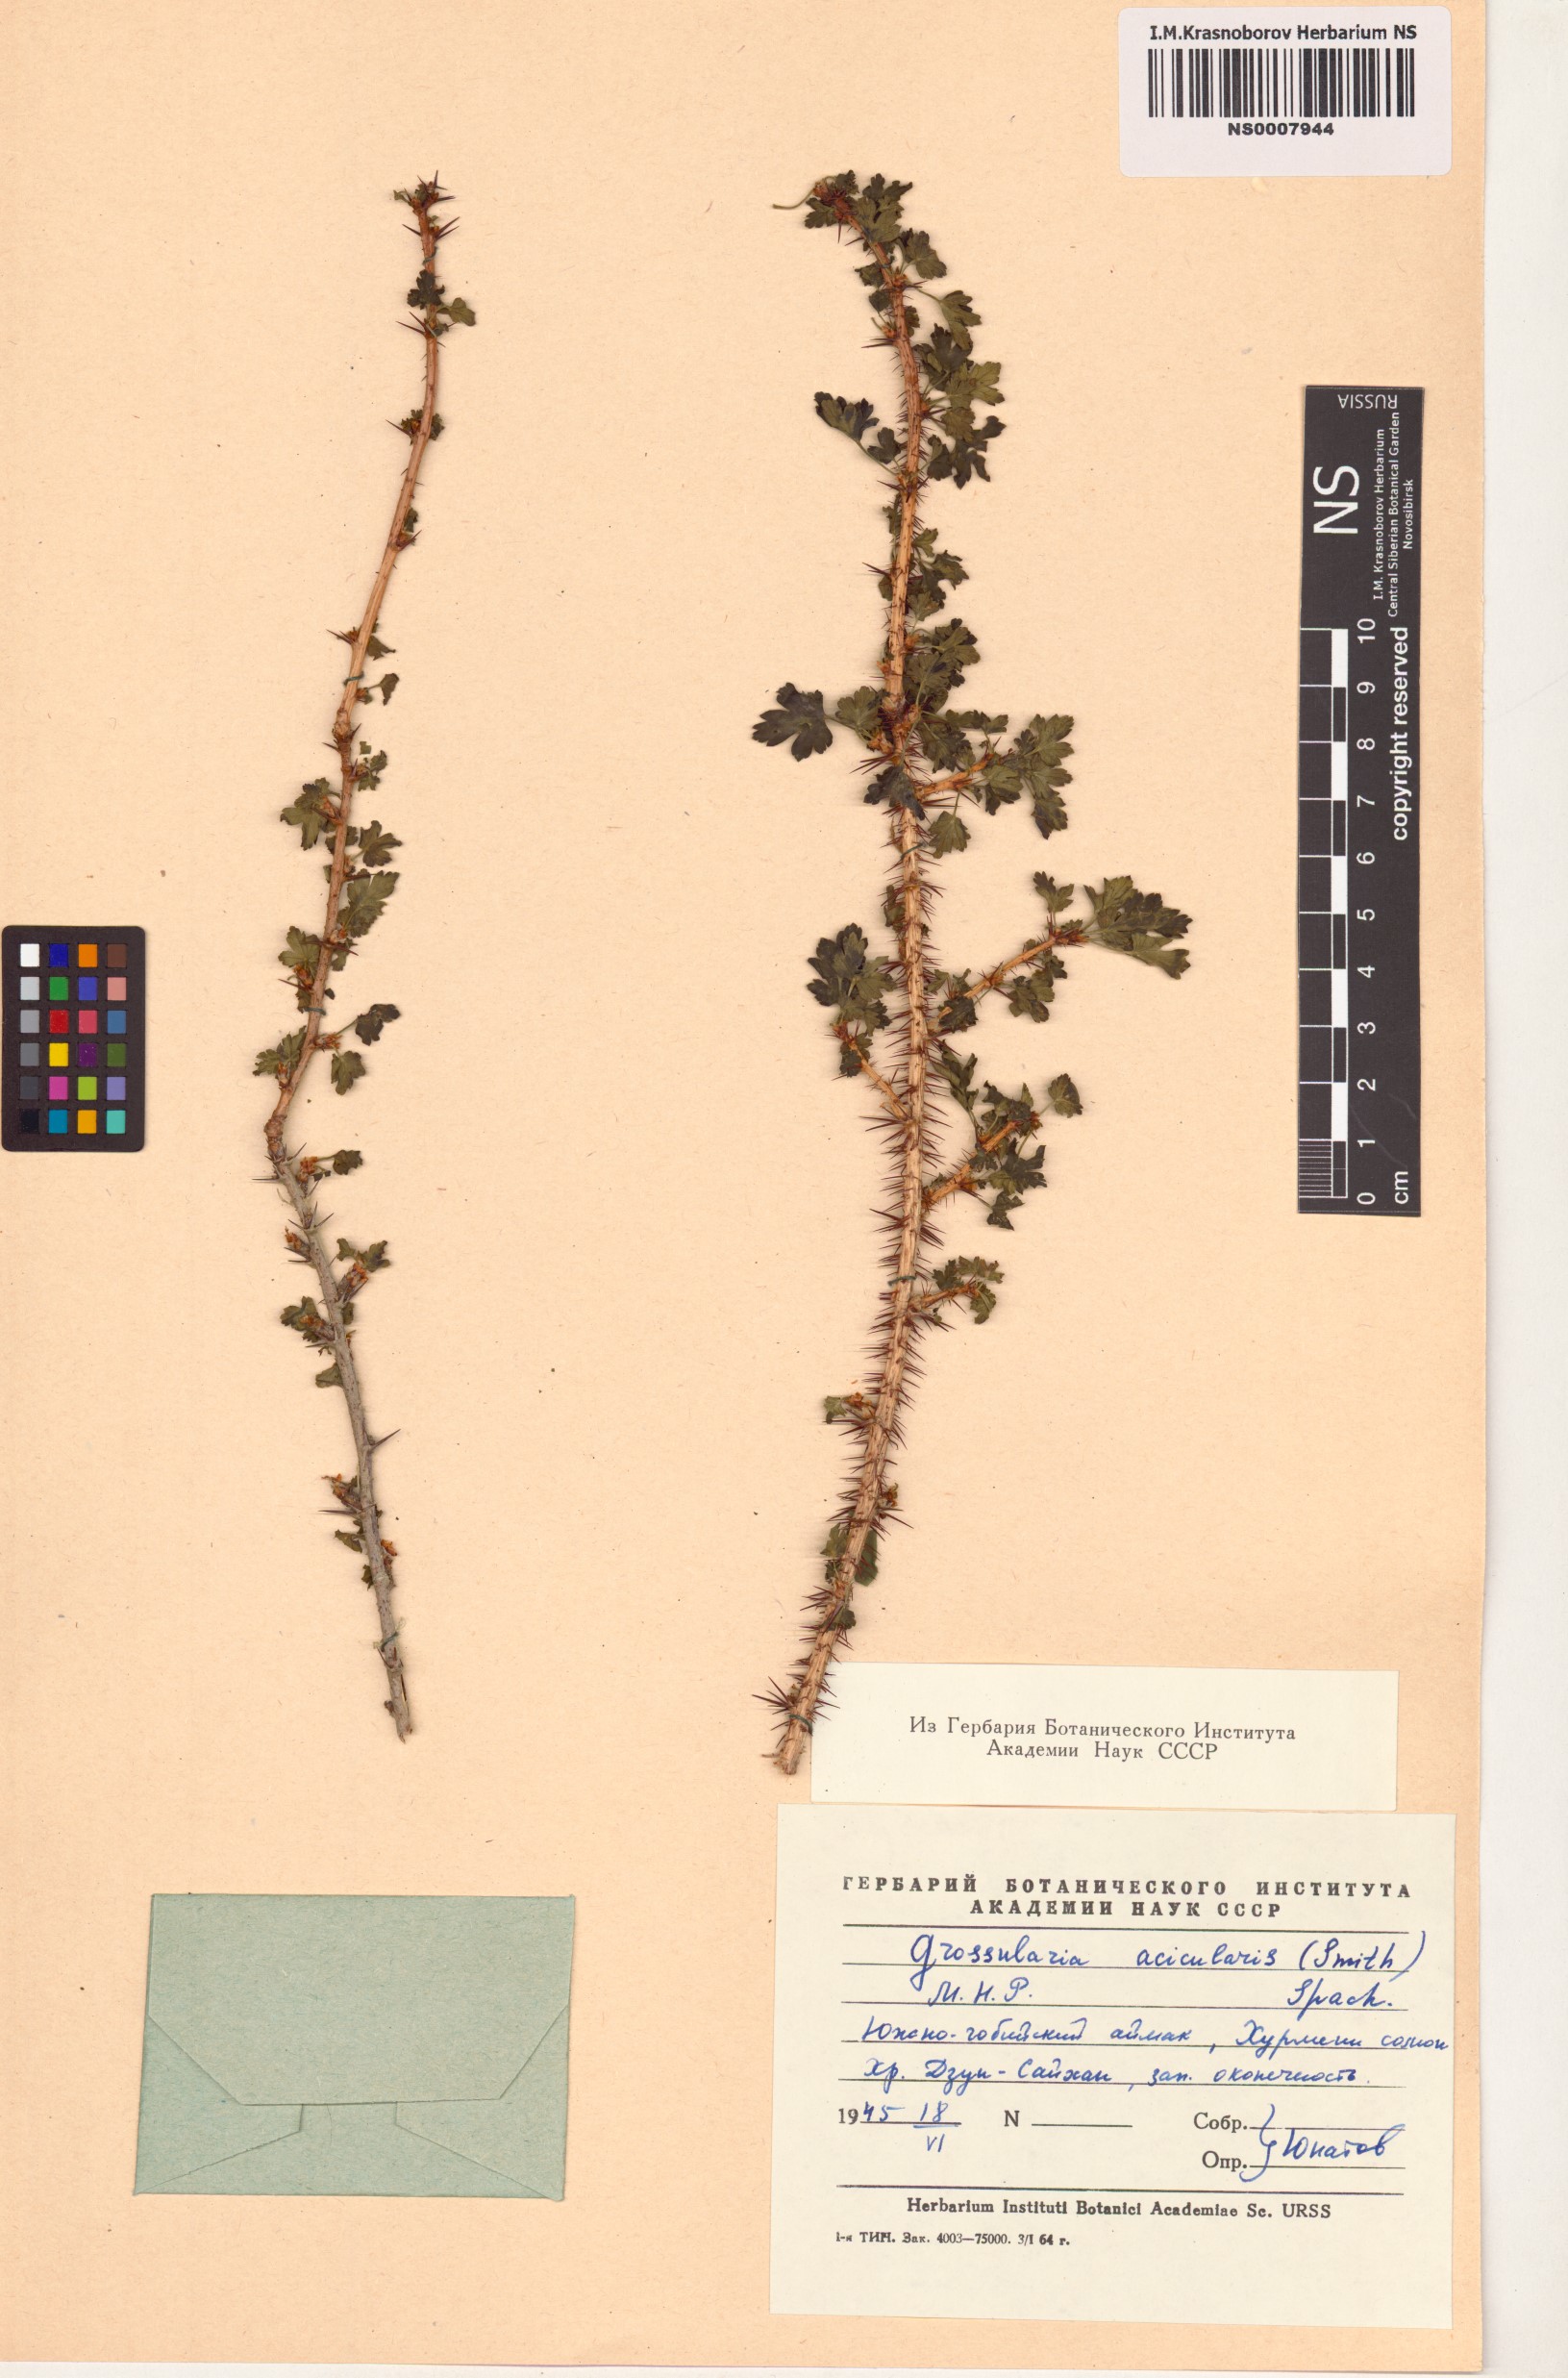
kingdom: Plantae
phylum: Tracheophyta
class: Magnoliopsida
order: Saxifragales
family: Grossulariaceae
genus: Ribes
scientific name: Ribes aciculare
